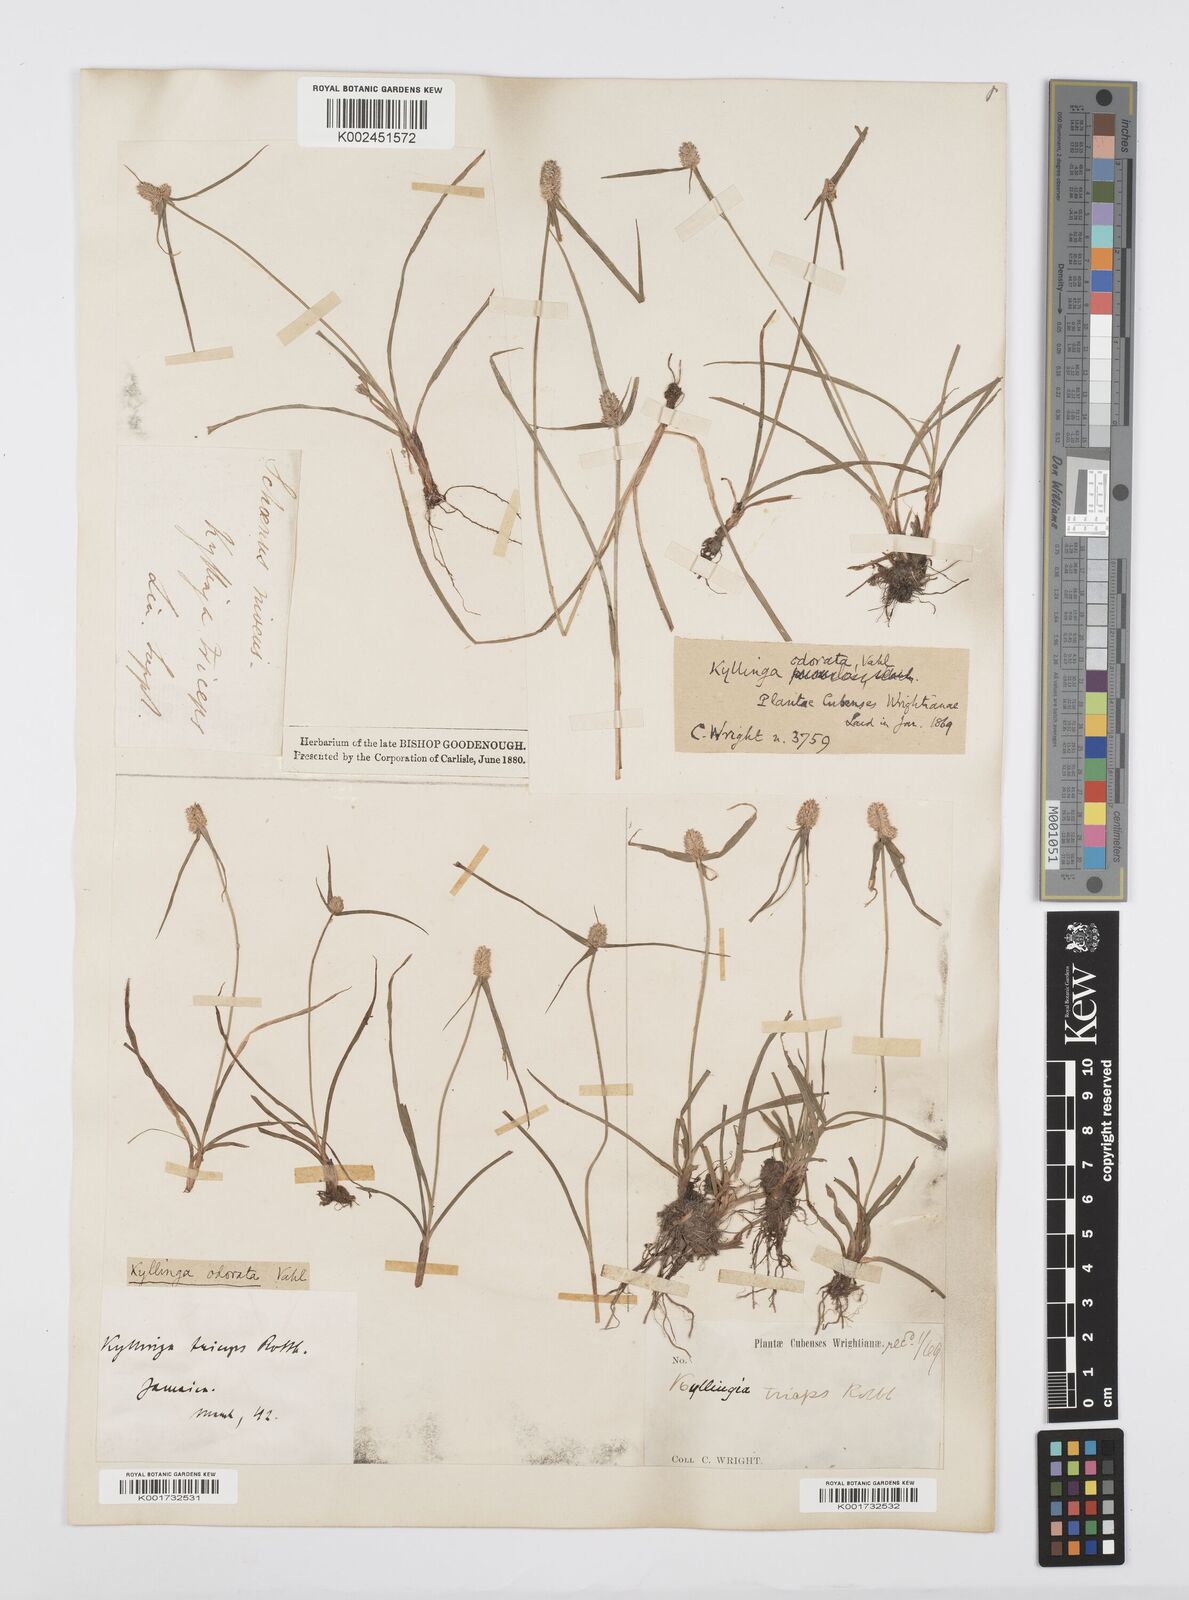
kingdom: Plantae
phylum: Tracheophyta
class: Liliopsida
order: Poales
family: Cyperaceae
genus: Cyperus
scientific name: Cyperus
